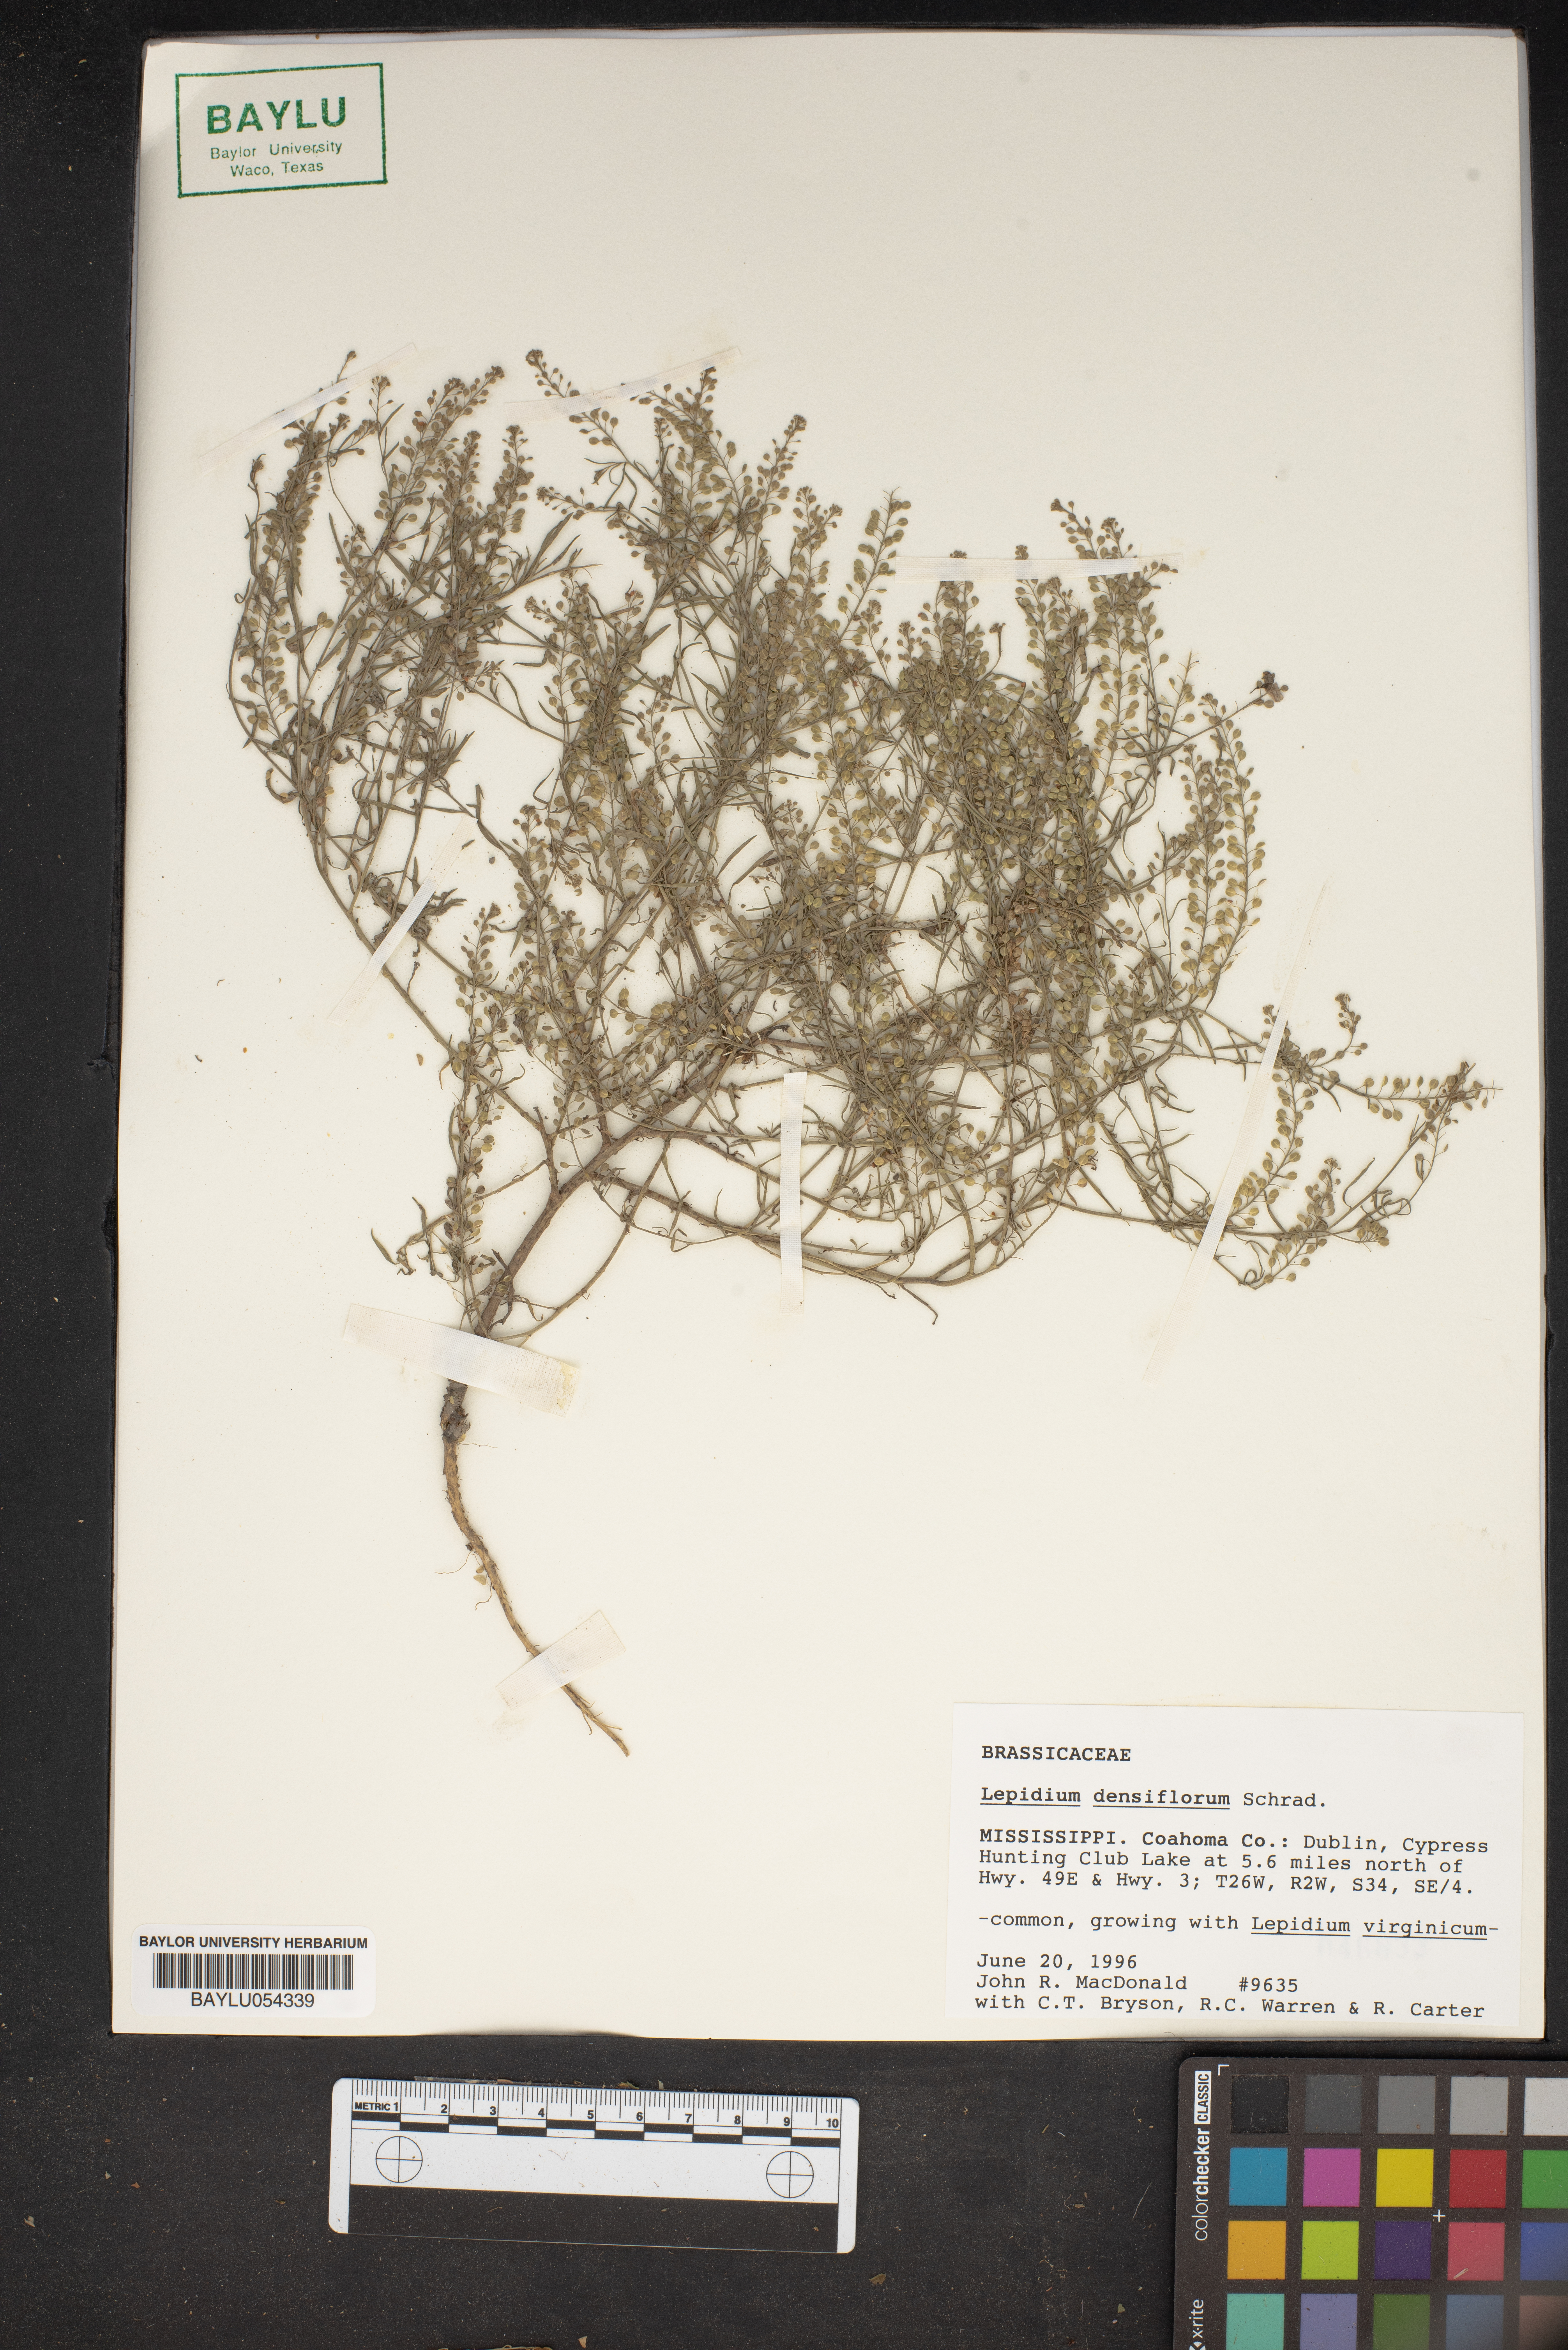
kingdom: Plantae
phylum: Tracheophyta
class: Magnoliopsida
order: Brassicales
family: Brassicaceae
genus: Lepidium
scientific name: Lepidium densiflorum
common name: Miner's pepperwort
